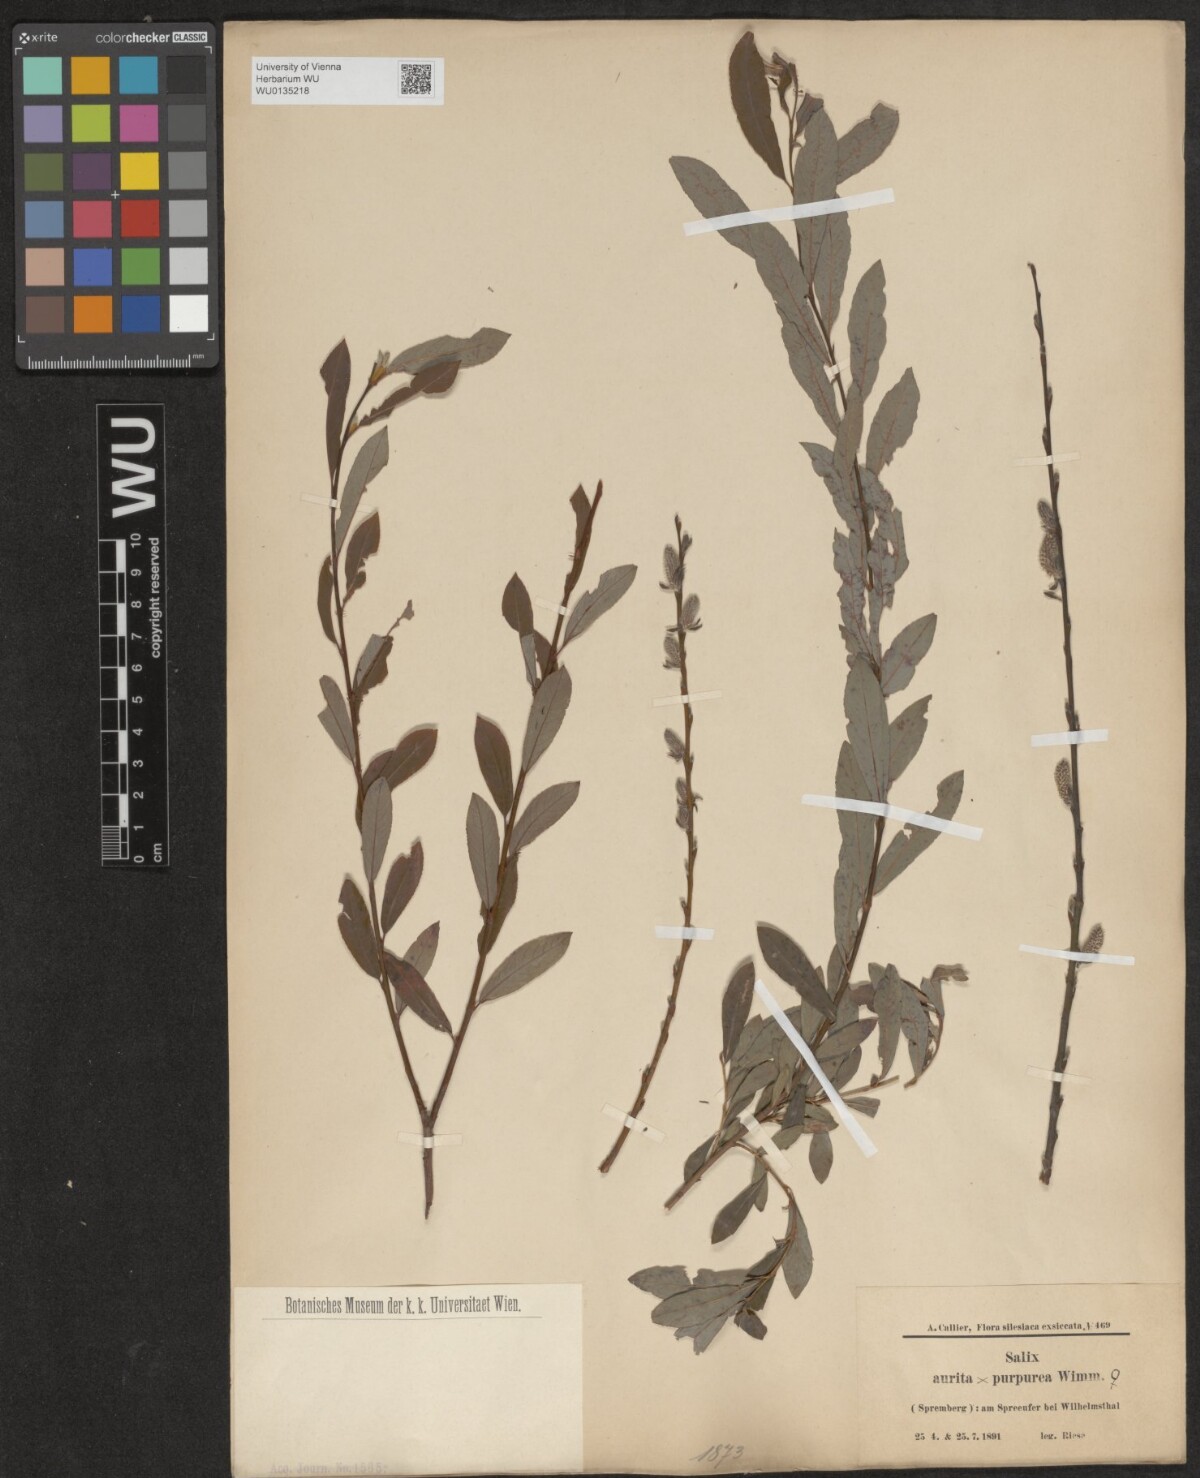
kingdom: Plantae
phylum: Tracheophyta
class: Magnoliopsida
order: Malpighiales
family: Salicaceae
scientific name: Salicaceae
